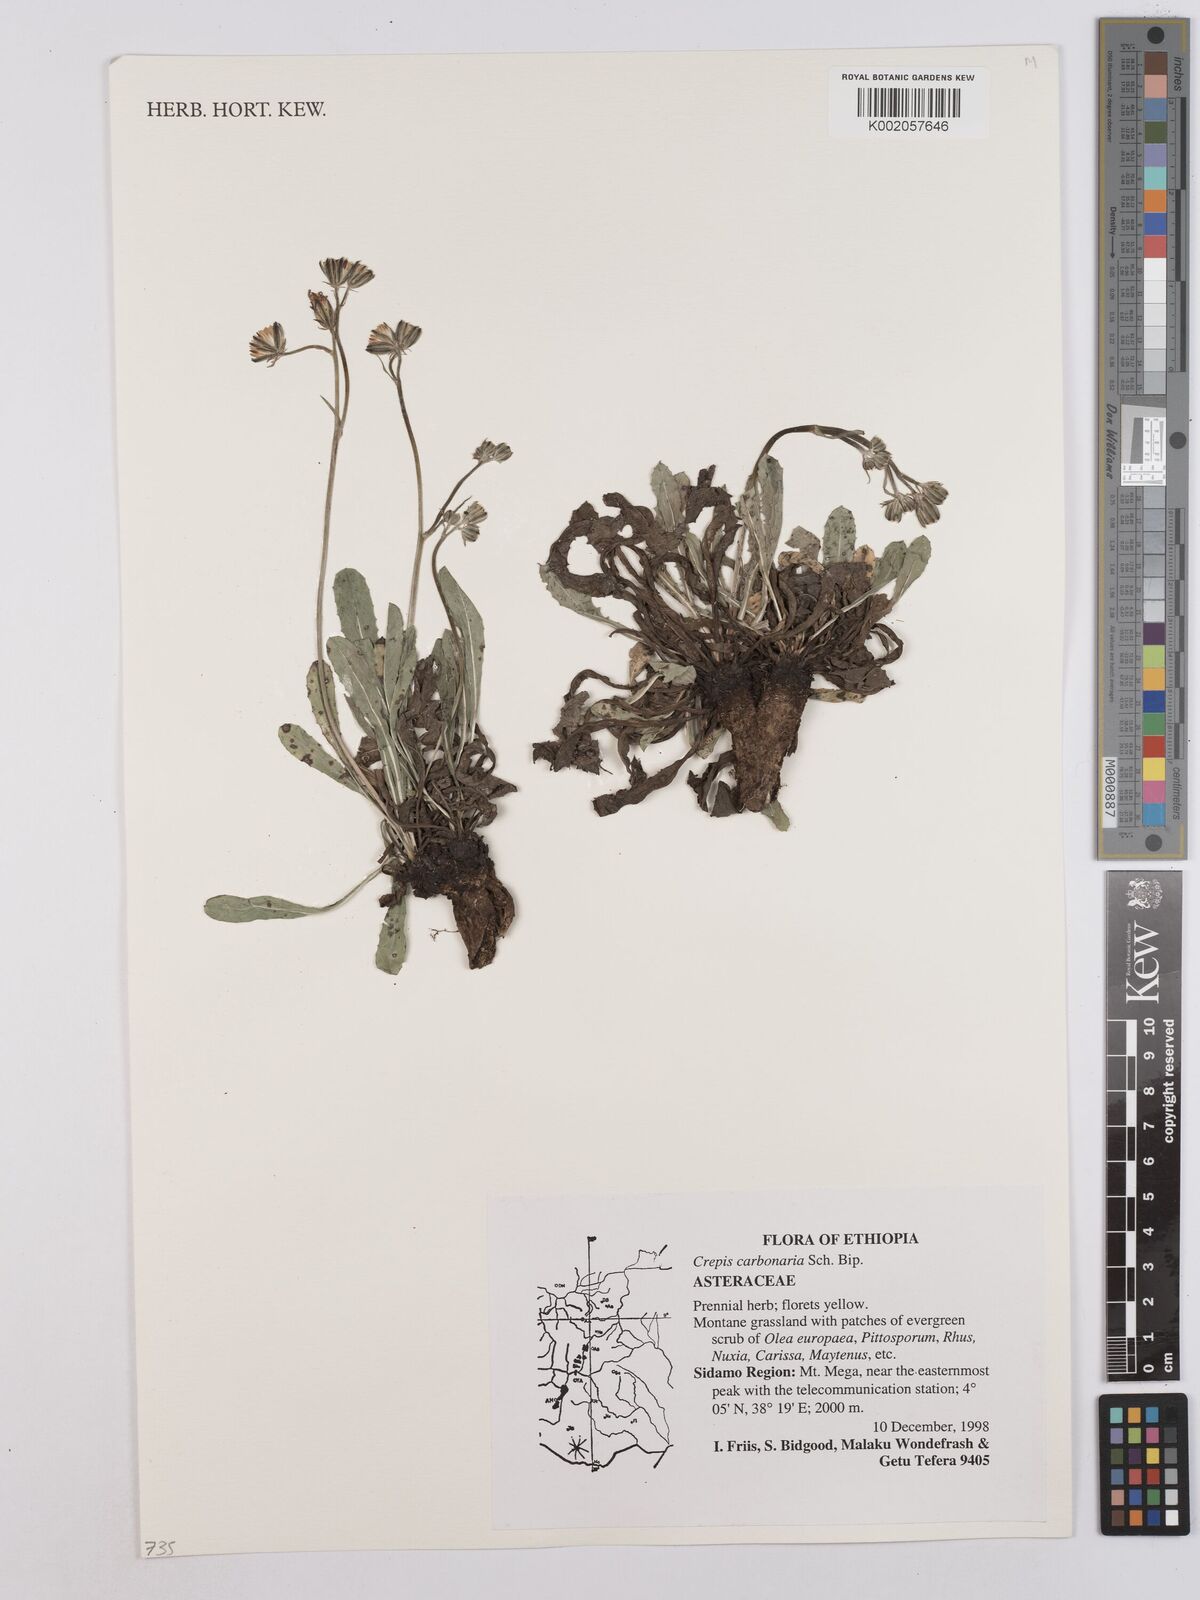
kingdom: Plantae
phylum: Tracheophyta
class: Magnoliopsida
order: Asterales
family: Asteraceae
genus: Crepis
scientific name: Crepis carbonaria
